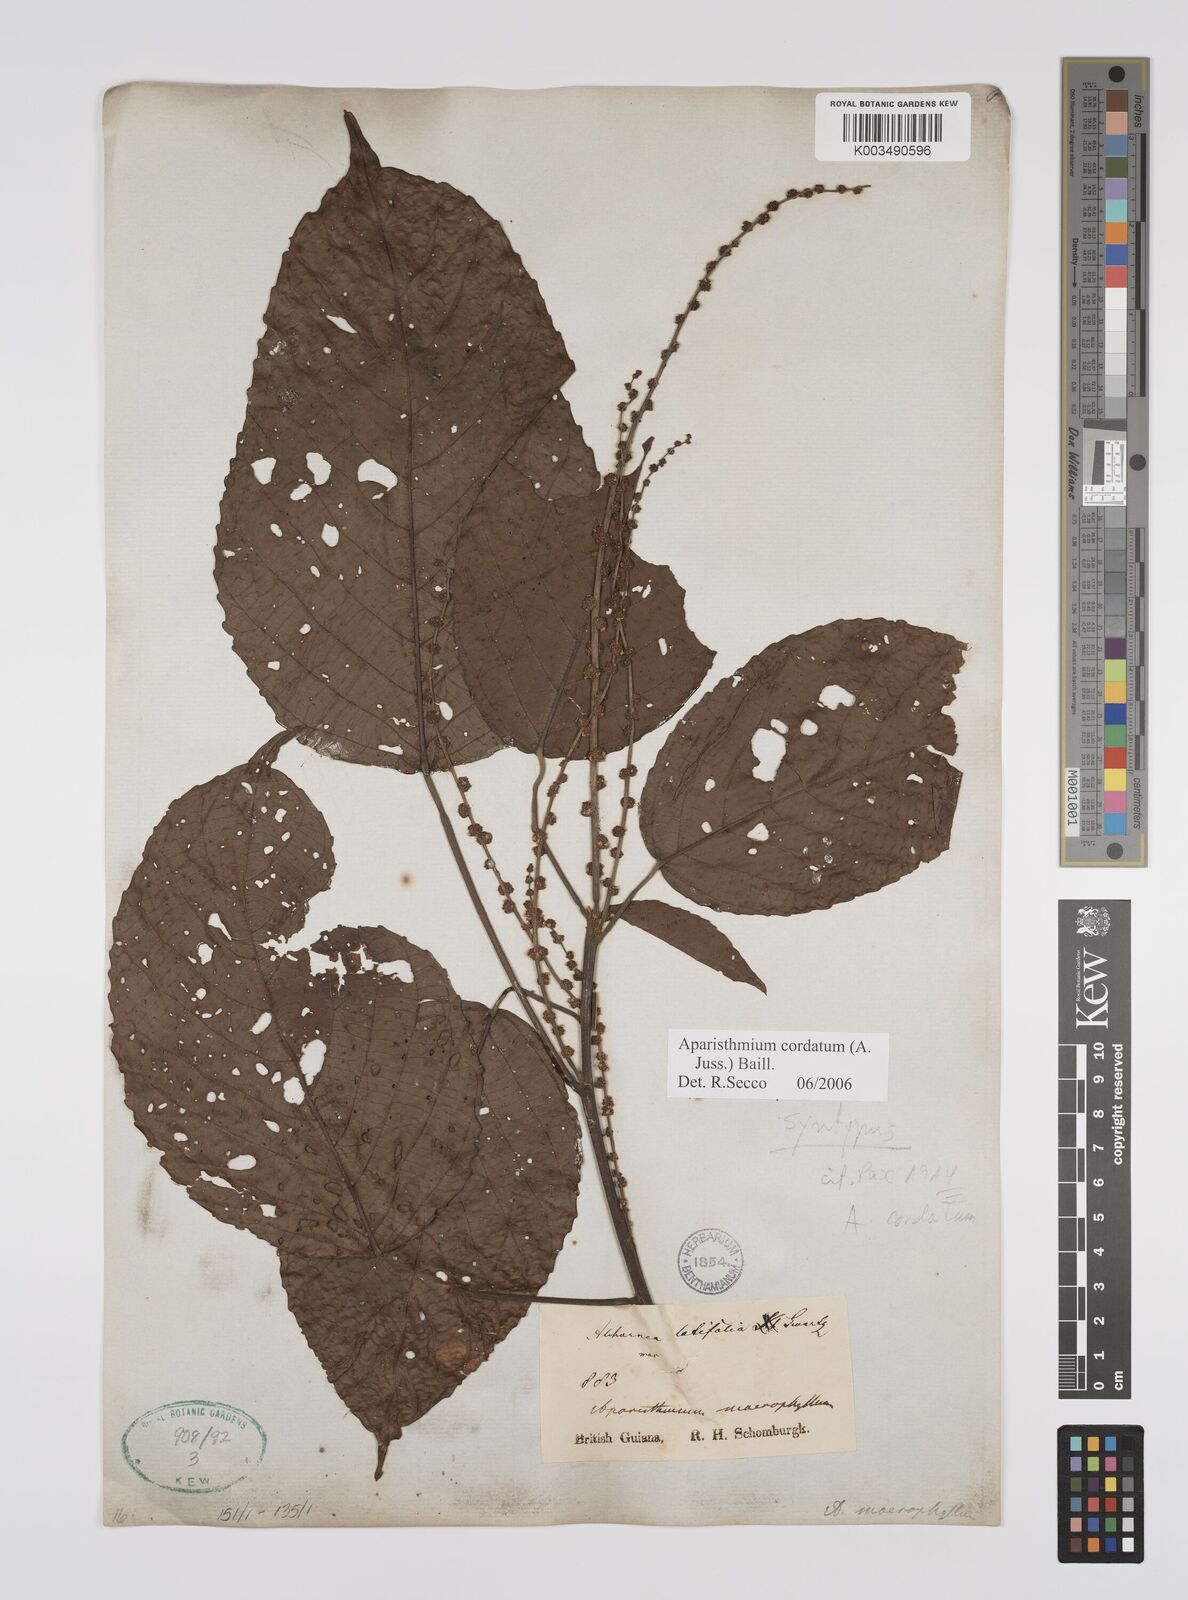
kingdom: Plantae
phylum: Tracheophyta
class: Magnoliopsida
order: Malpighiales
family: Euphorbiaceae
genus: Aparisthmium
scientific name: Aparisthmium cordatum
